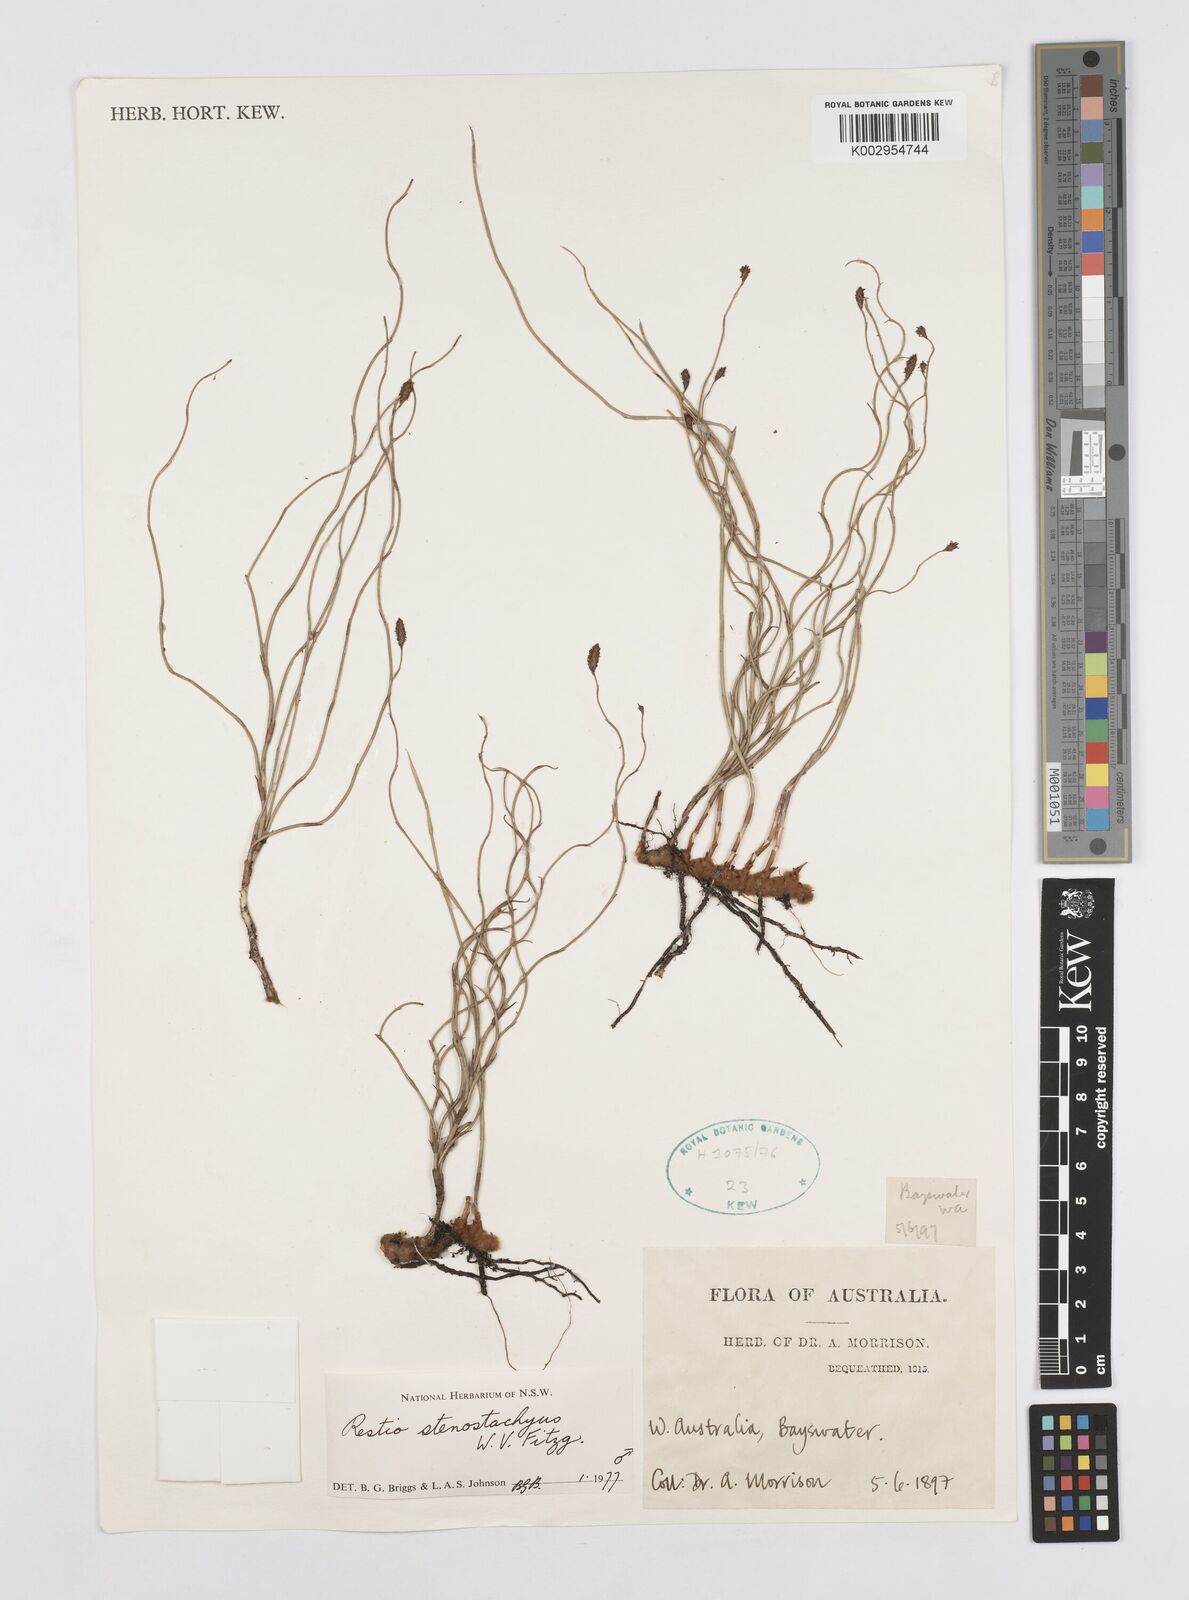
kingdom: Plantae
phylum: Tracheophyta
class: Liliopsida
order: Poales
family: Restionaceae
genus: Dielsia
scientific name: Dielsia stenostachya
